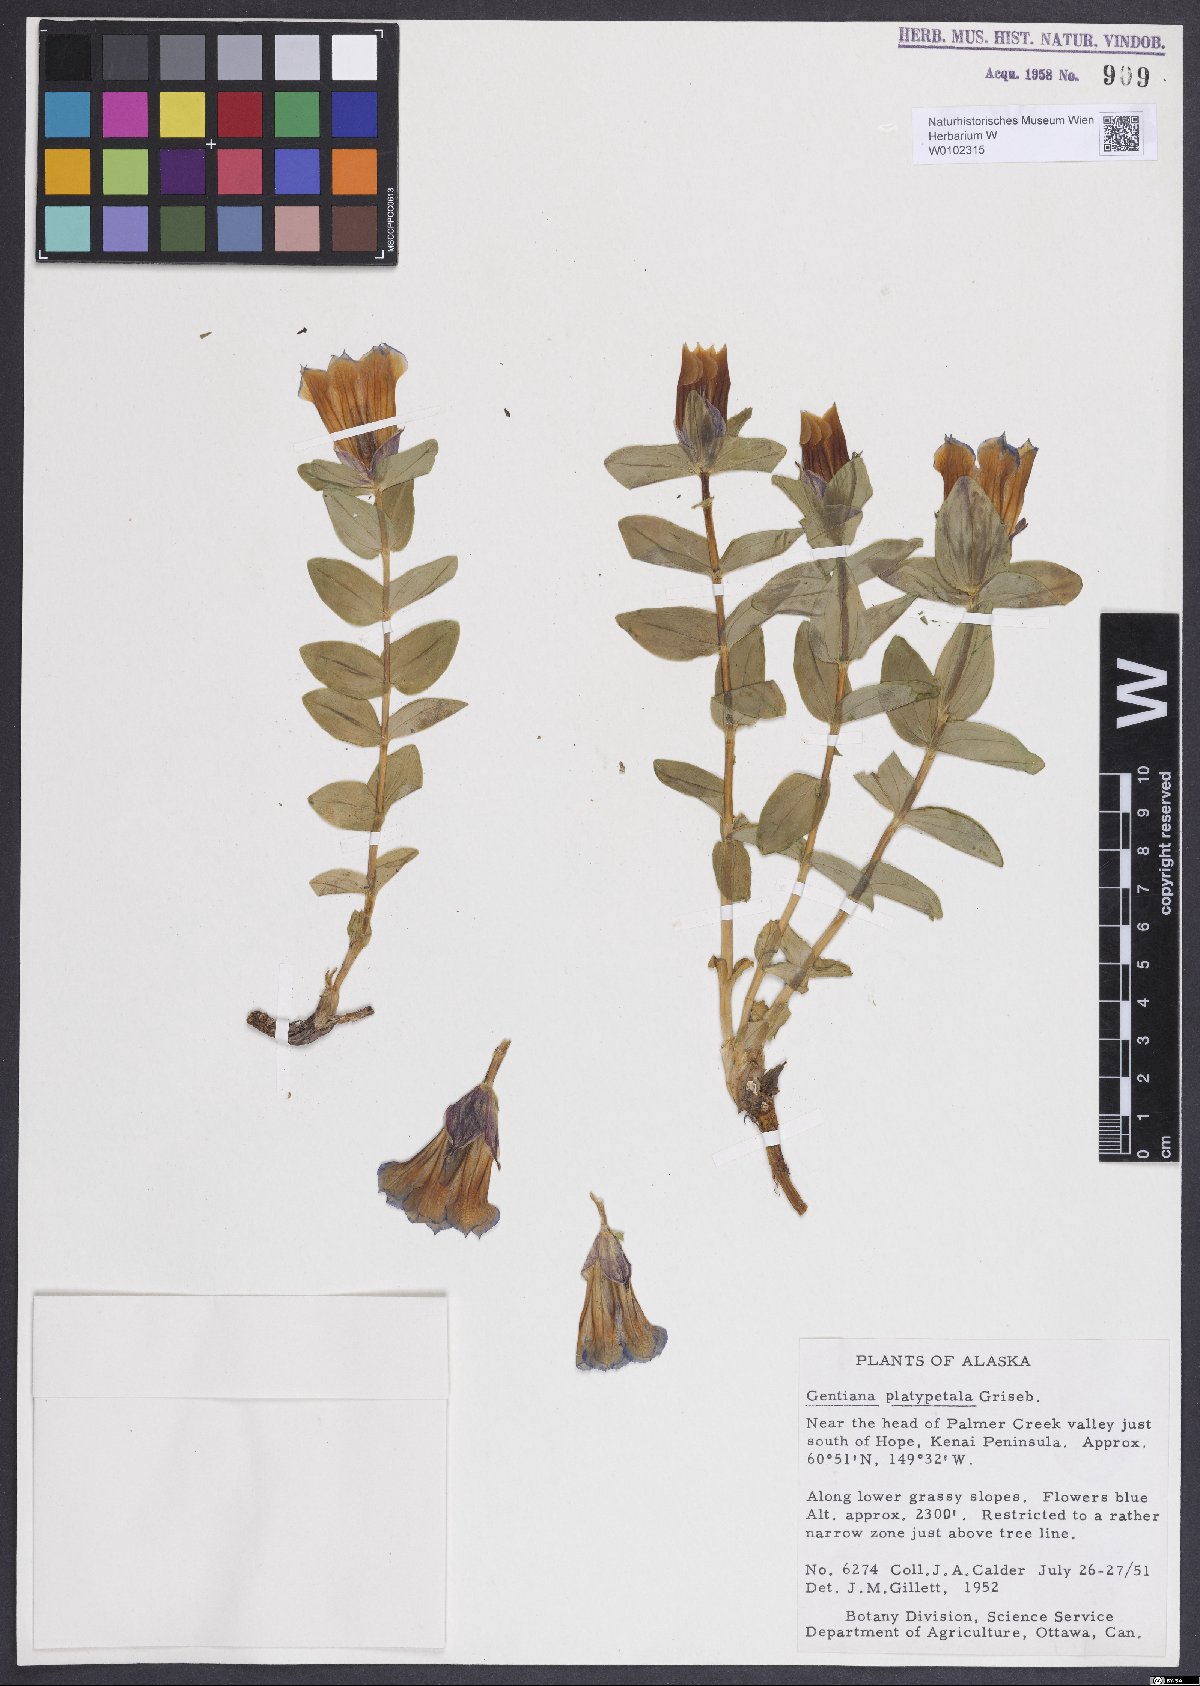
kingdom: Plantae
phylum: Tracheophyta
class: Magnoliopsida
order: Gentianales
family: Gentianaceae
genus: Gentiana
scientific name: Gentiana platypetala
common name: Broad-petalled gentian
